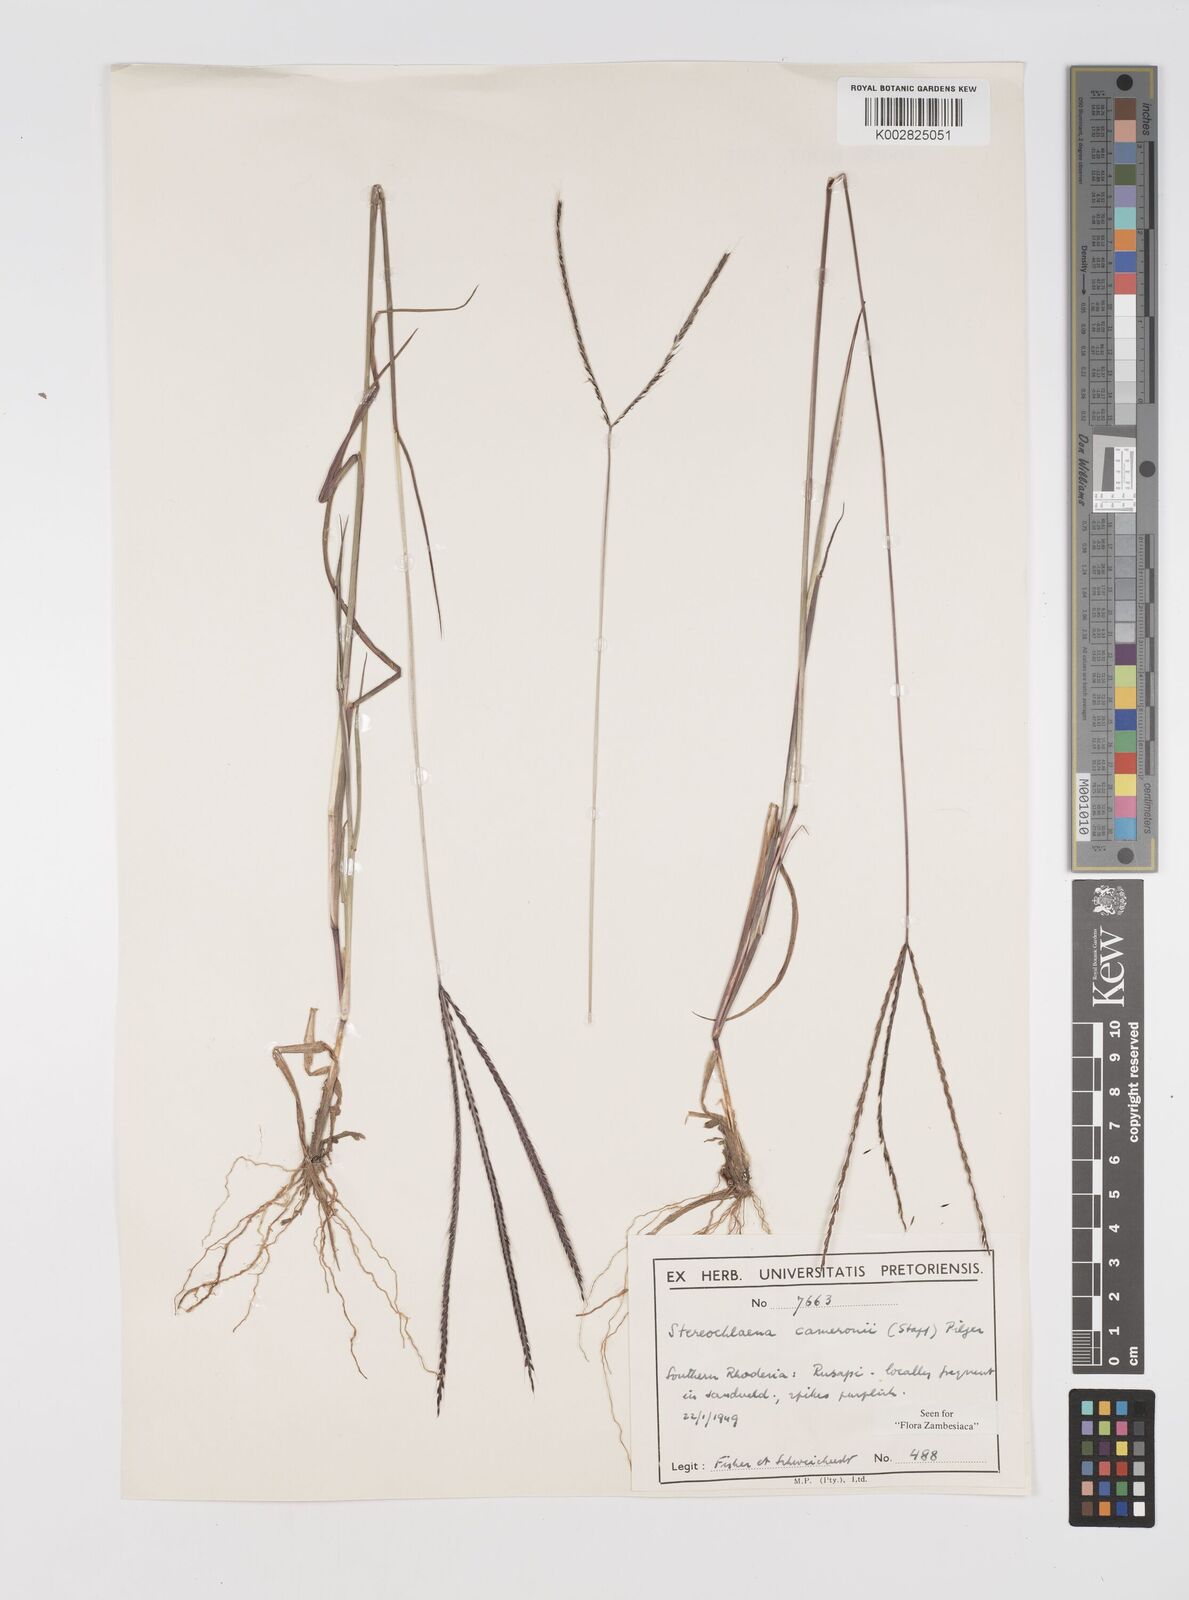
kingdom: Plantae
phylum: Tracheophyta
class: Liliopsida
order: Poales
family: Poaceae
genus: Stereochlaena
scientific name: Stereochlaena cameronii
